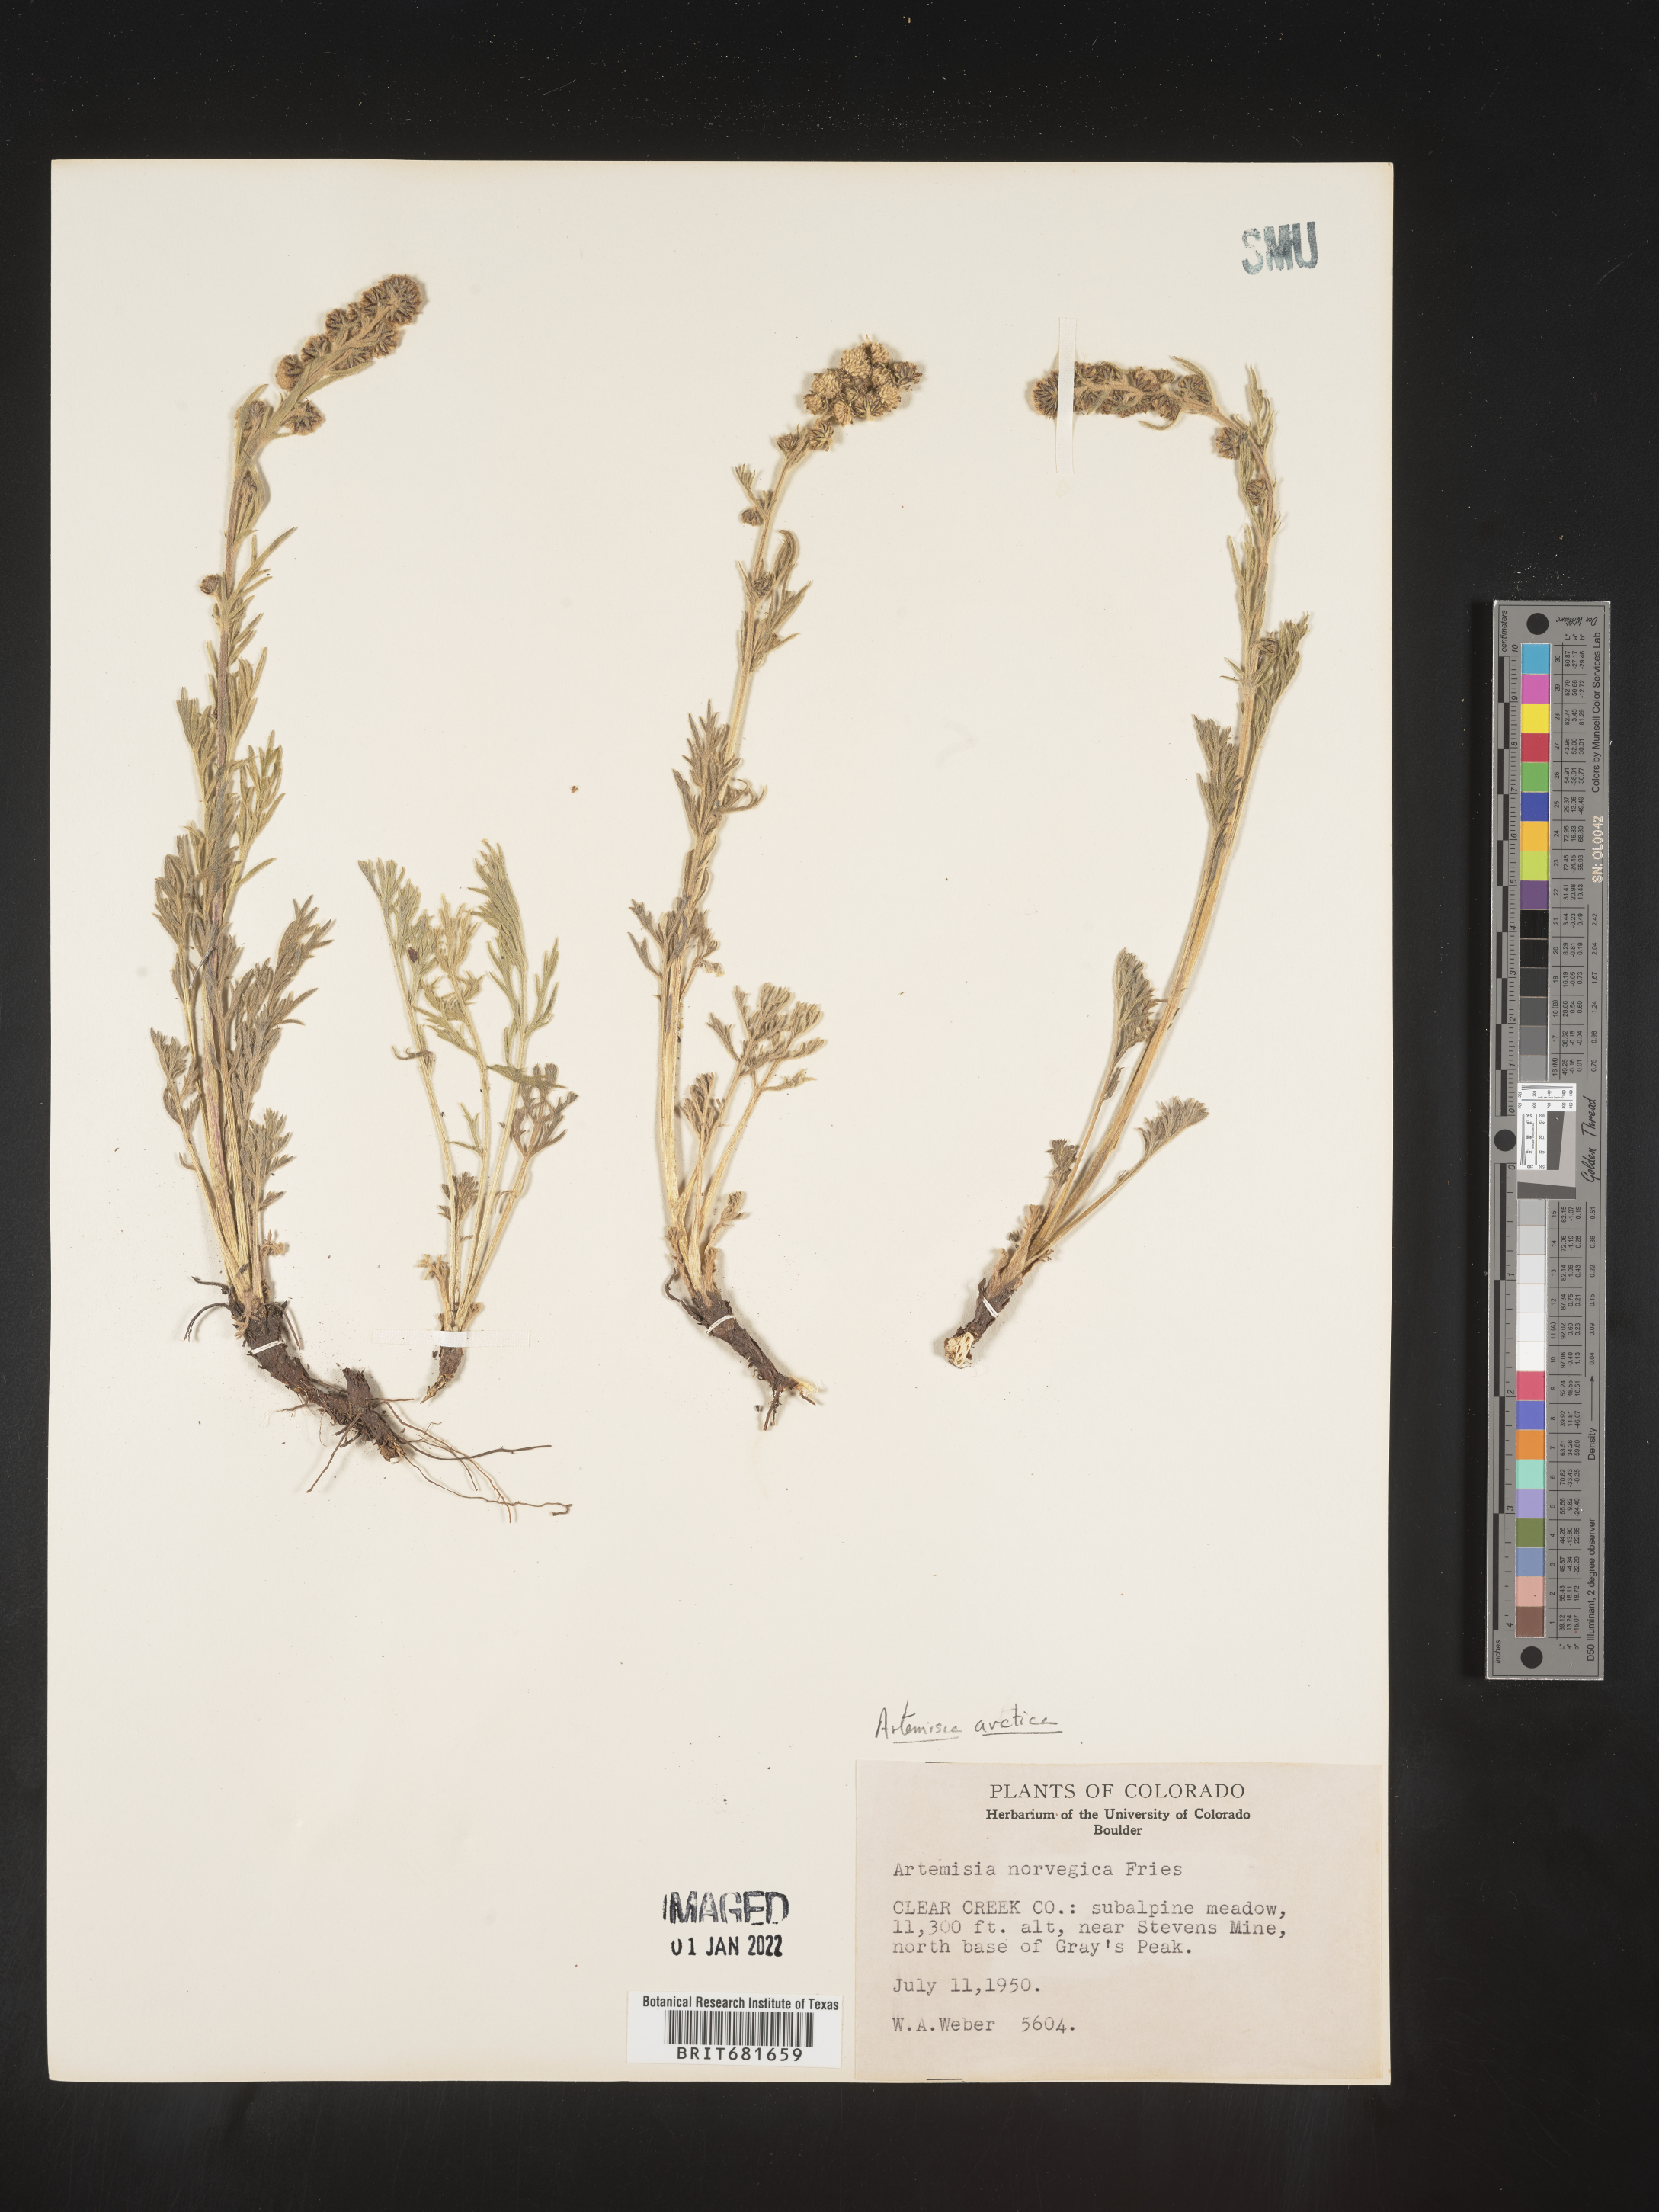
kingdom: Plantae
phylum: Tracheophyta
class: Magnoliopsida
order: Asterales
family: Asteraceae
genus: Artemisia
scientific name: Artemisia norvegica
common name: Norwegian mugwort
